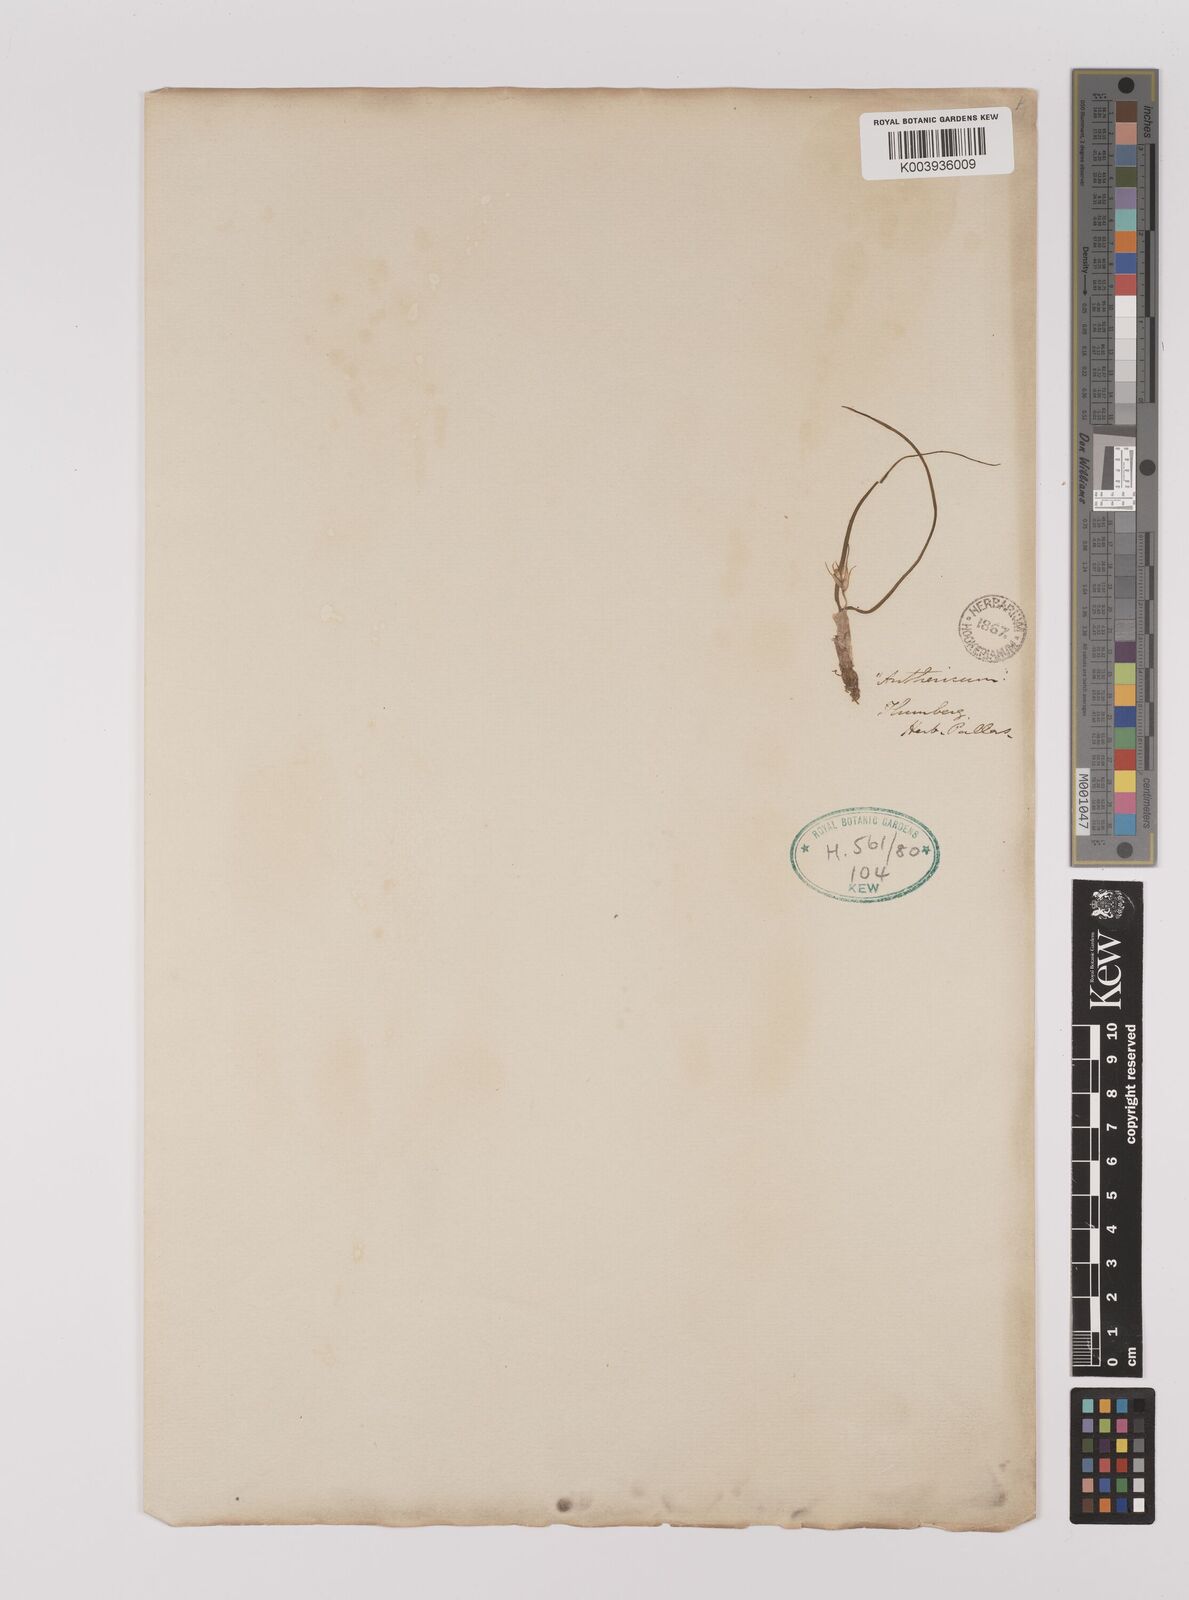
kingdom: Plantae
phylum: Tracheophyta
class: Liliopsida
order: Asparagales
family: Asparagaceae
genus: Chlorophytum
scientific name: Chlorophytum
